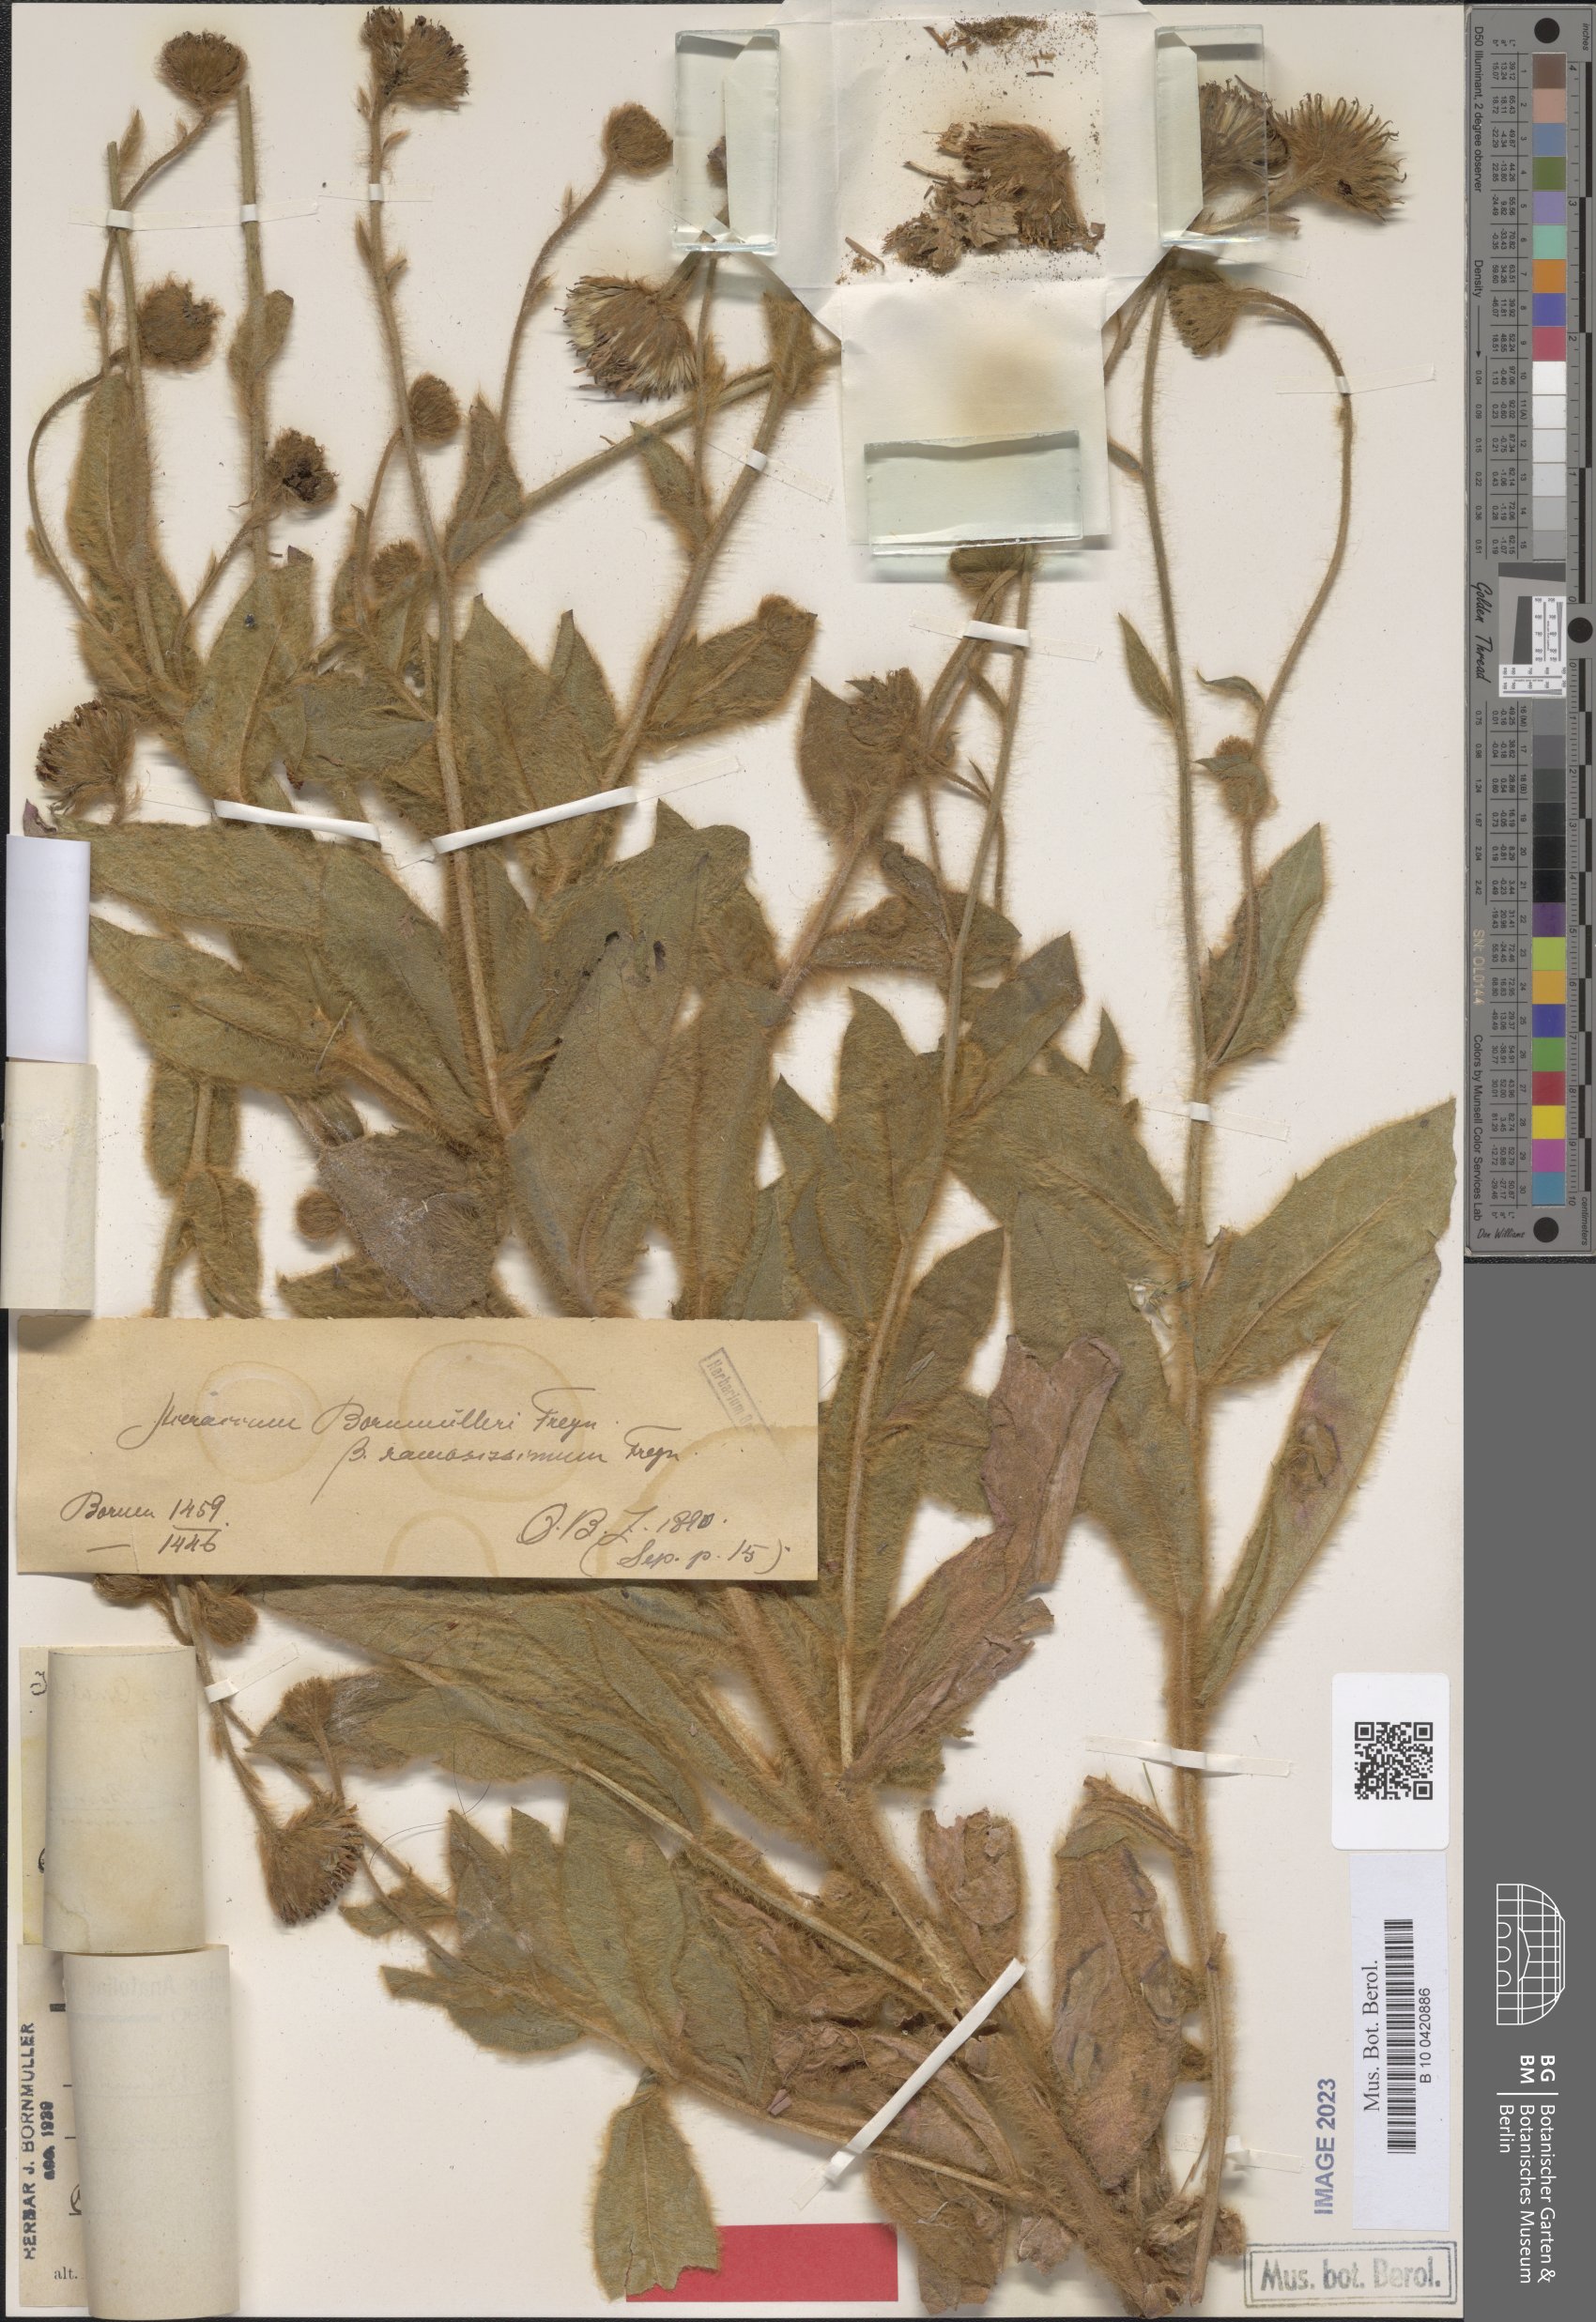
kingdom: Plantae
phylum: Tracheophyta
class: Magnoliopsida
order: Asterales
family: Asteraceae
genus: Hieracium
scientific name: Hieracium pannosum
